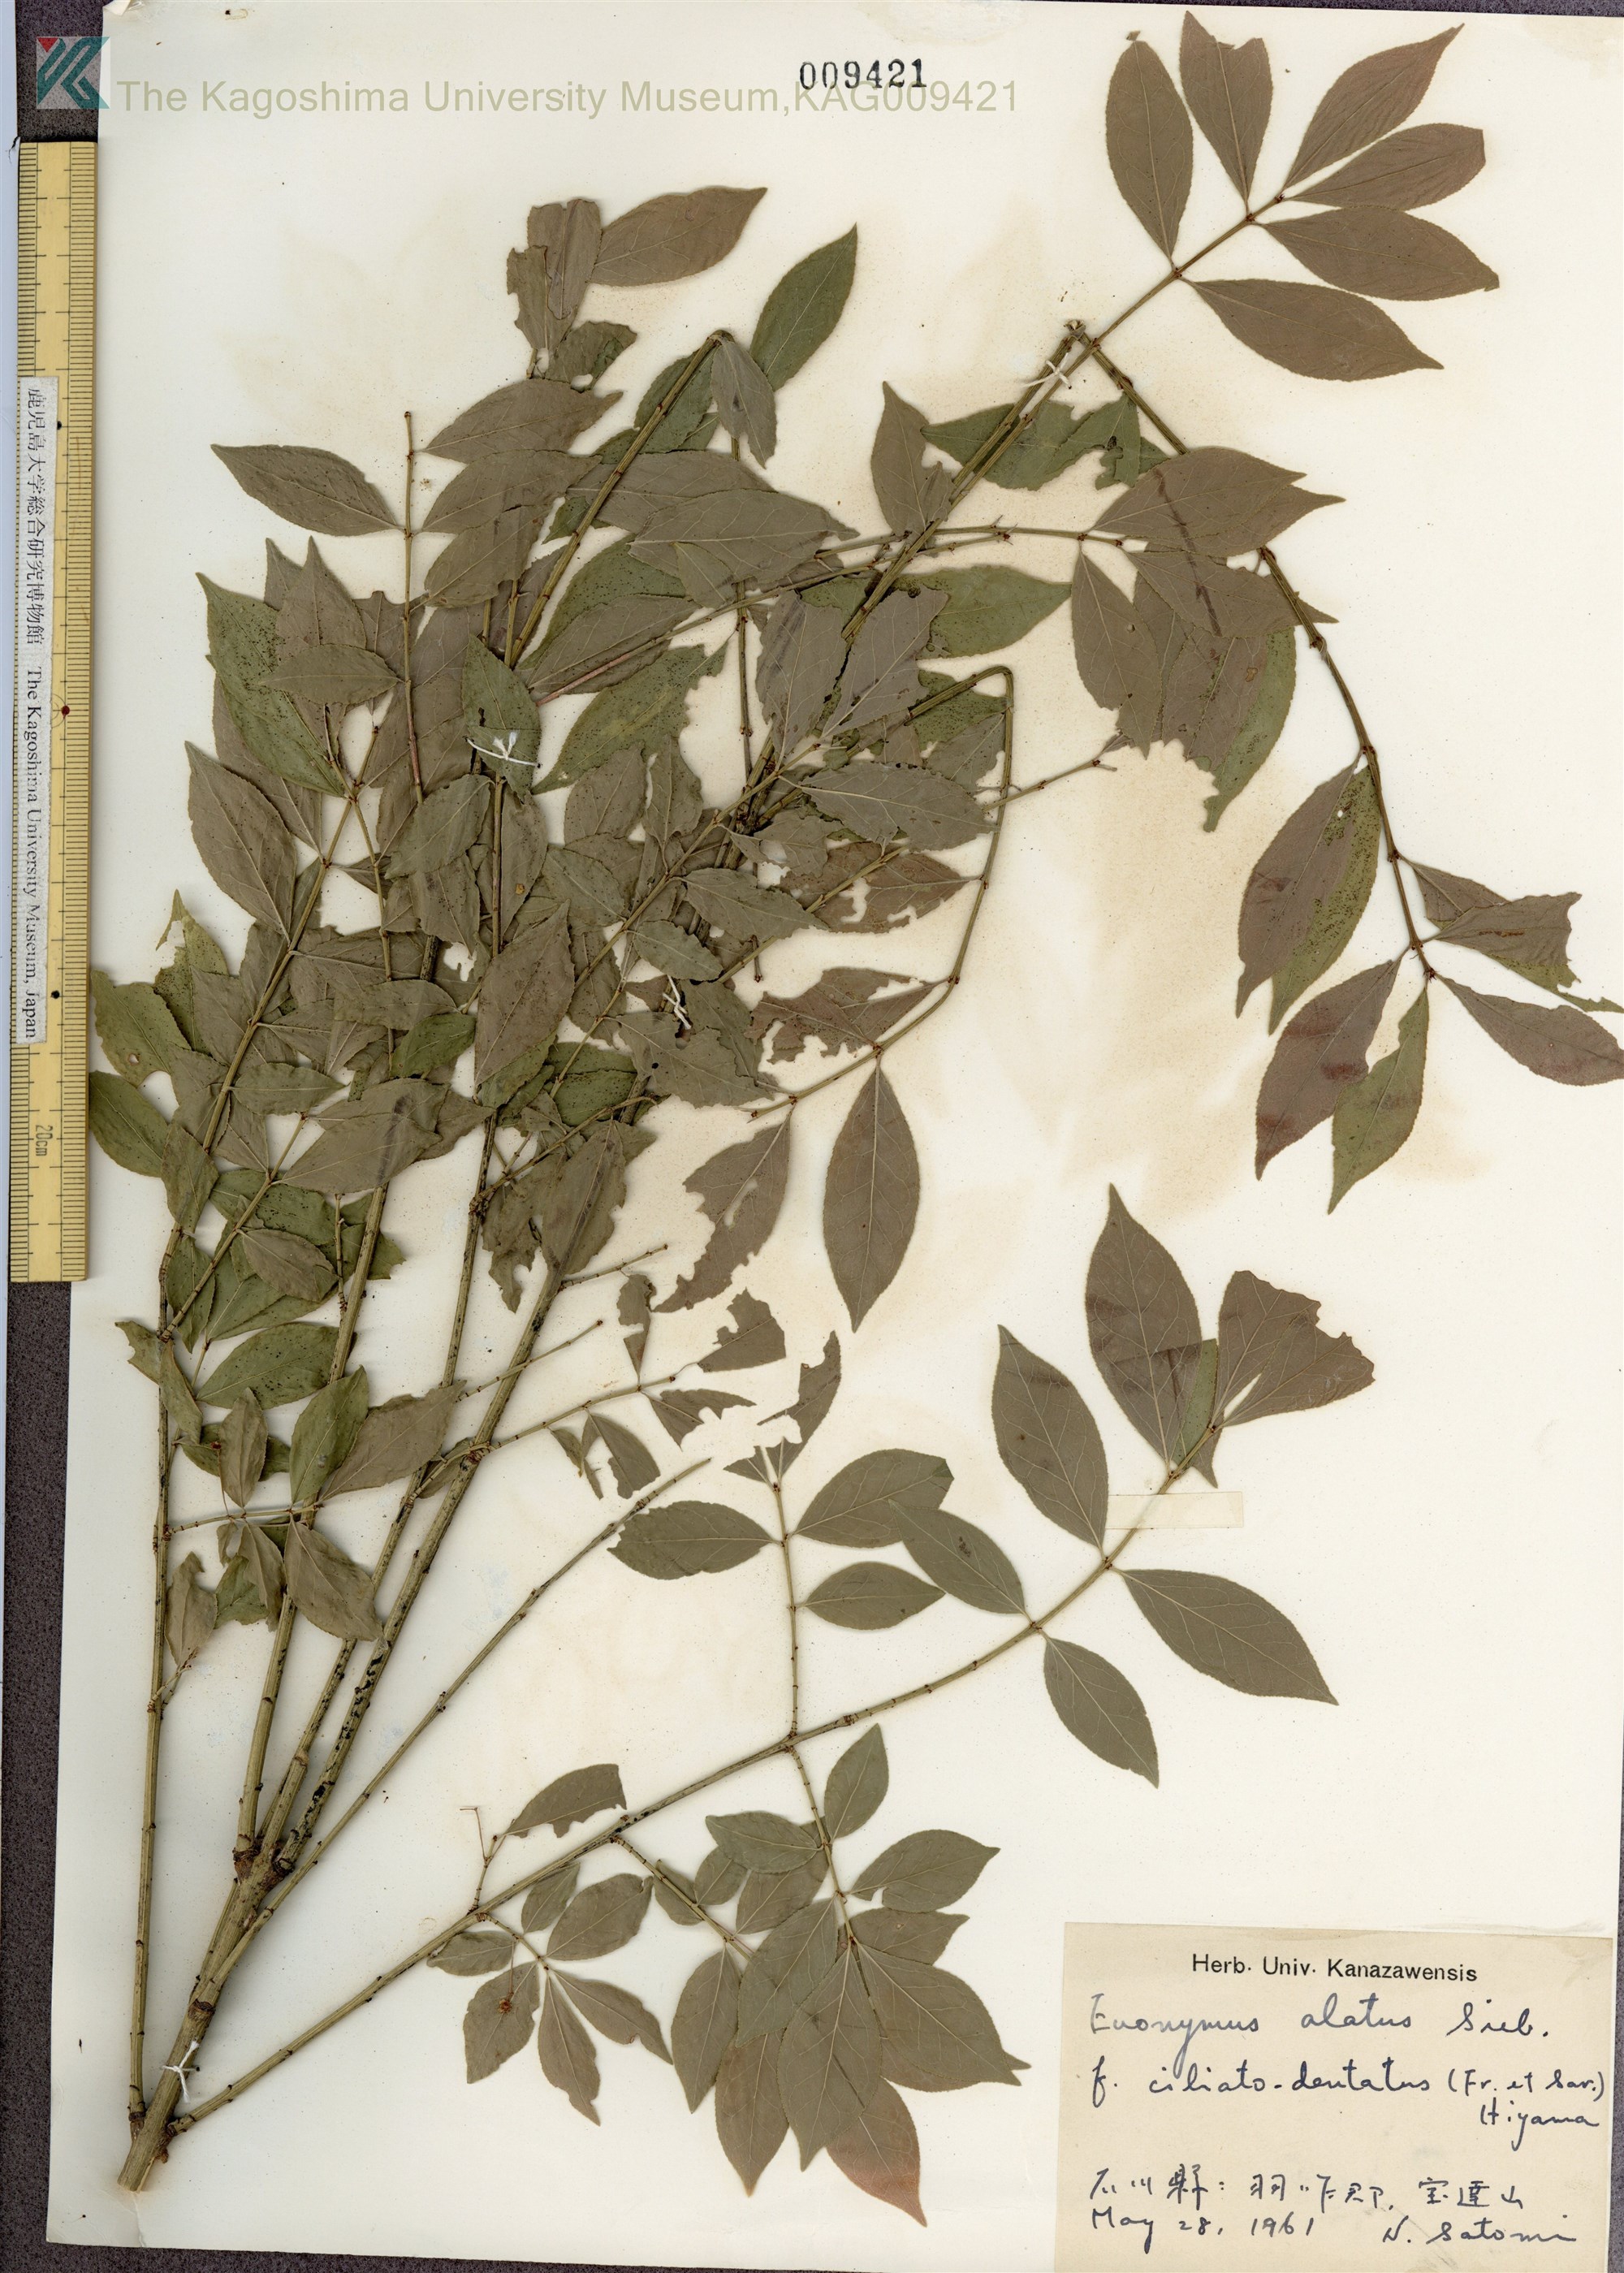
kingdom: Plantae
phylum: Tracheophyta
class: Magnoliopsida
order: Celastrales
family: Celastraceae
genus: Euonymus
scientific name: Euonymus alatus
